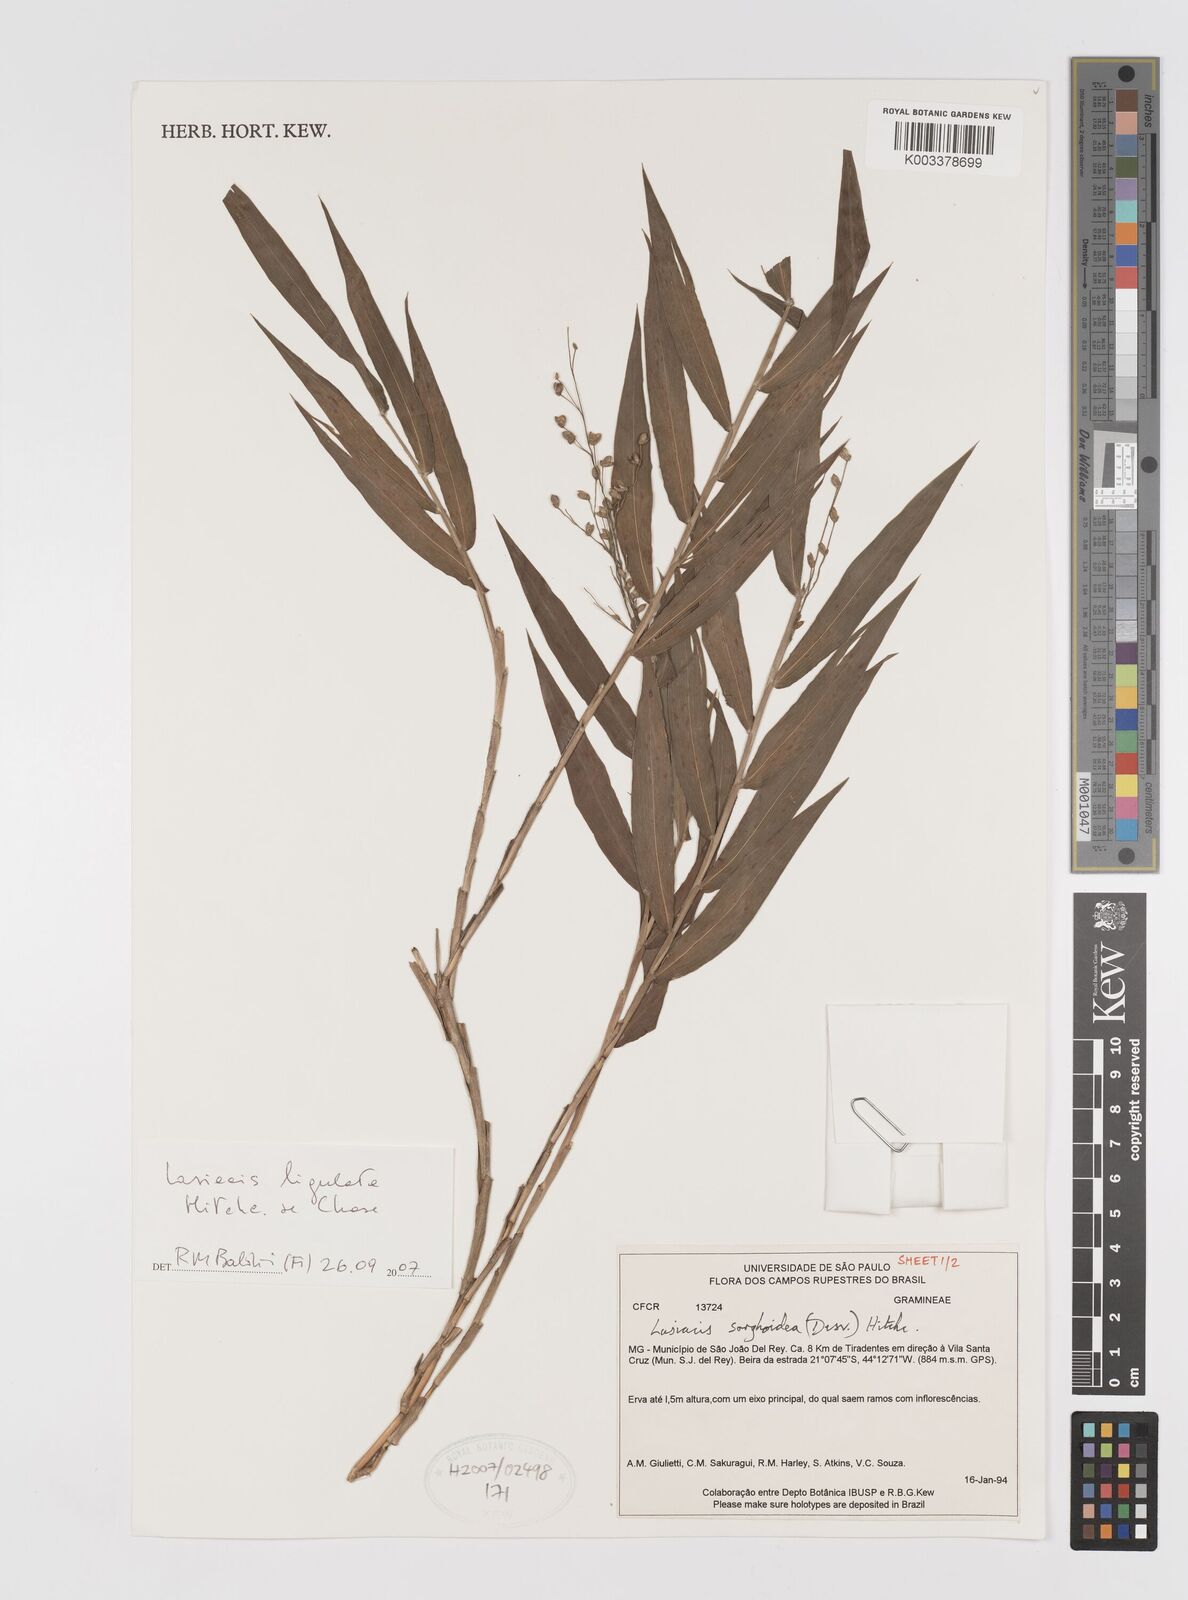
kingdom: Plantae
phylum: Tracheophyta
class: Liliopsida
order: Poales
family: Poaceae
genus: Lasiacis
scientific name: Lasiacis ligulata
